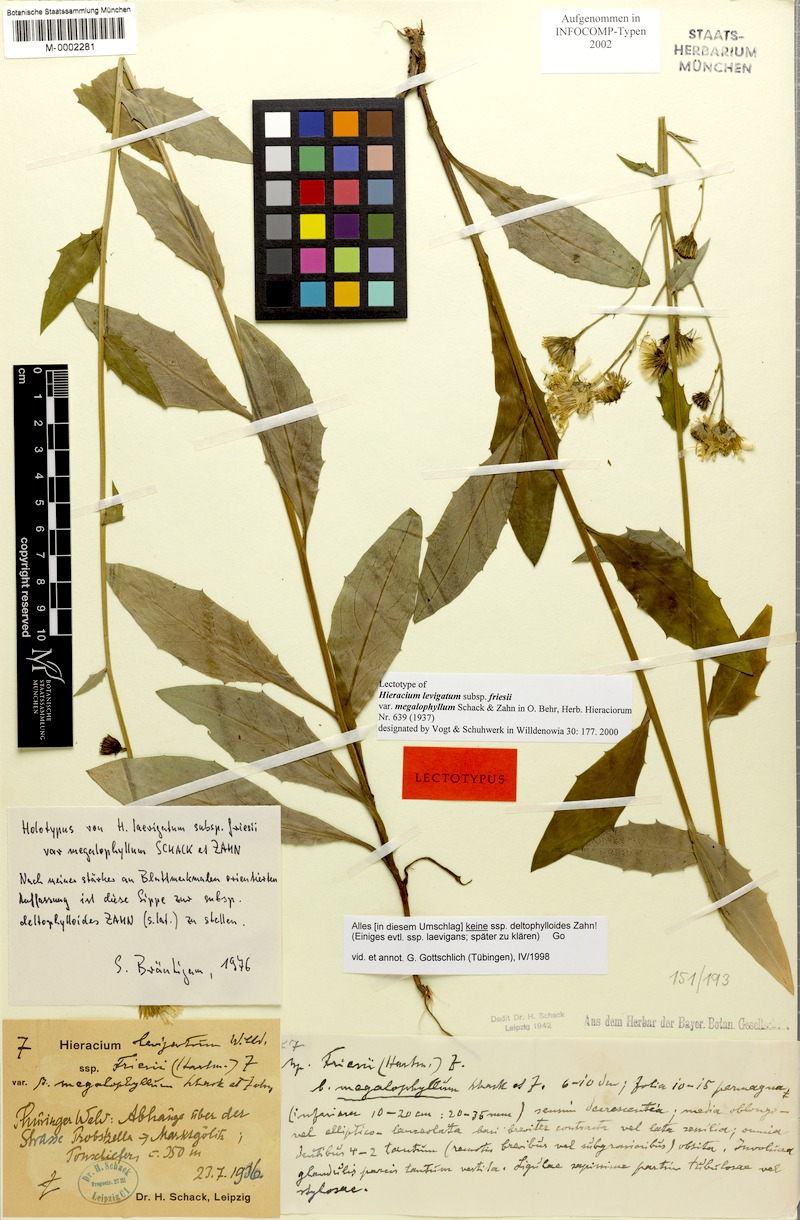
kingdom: Plantae
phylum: Tracheophyta
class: Magnoliopsida
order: Asterales
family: Asteraceae
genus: Hieracium
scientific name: Hieracium laevigatum
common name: Smooth hawkweed
